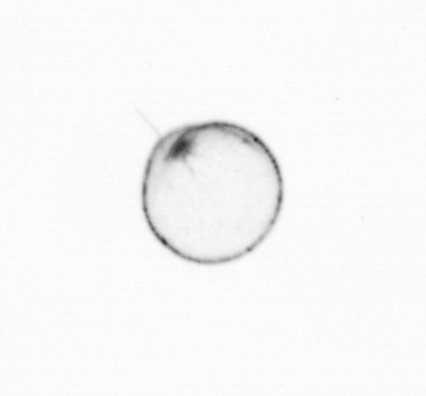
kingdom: Chromista
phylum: Myzozoa
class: Dinophyceae
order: Noctilucales
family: Noctilucaceae
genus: Noctiluca
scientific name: Noctiluca scintillans
